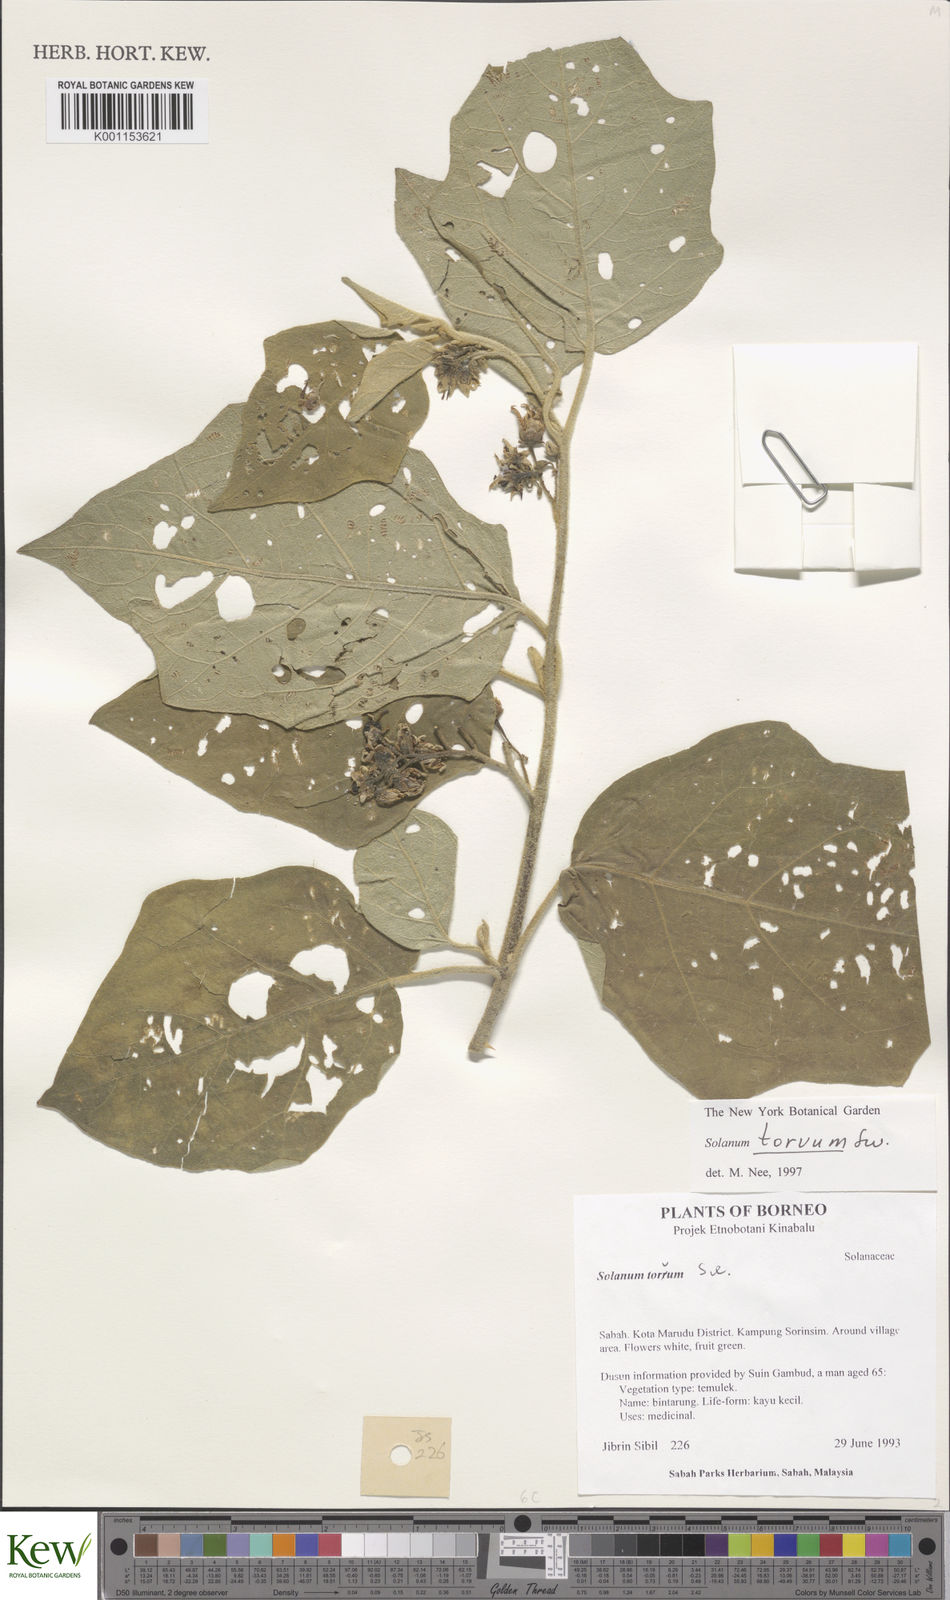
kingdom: Plantae
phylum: Tracheophyta
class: Magnoliopsida
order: Solanales
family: Solanaceae
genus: Solanum
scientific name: Solanum torvum
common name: Turkey berry
